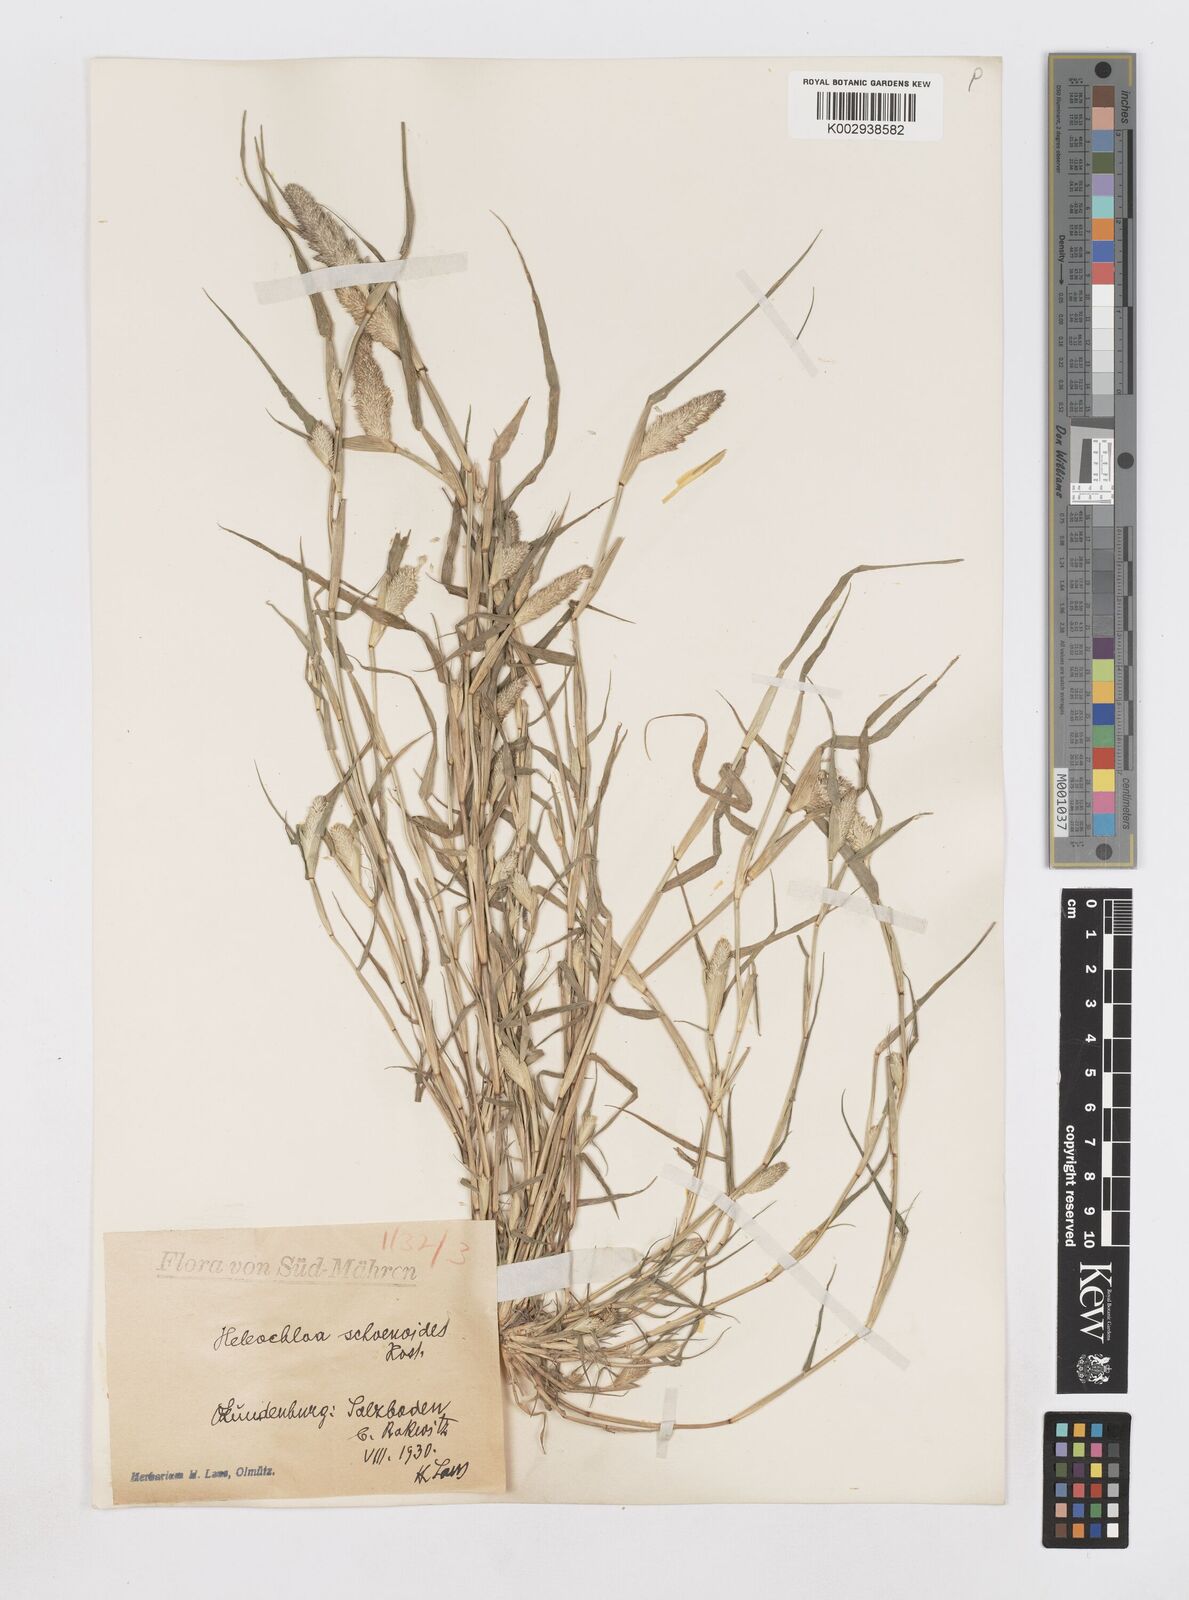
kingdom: Animalia
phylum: Arthropoda
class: Insecta
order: Coleoptera
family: Tenebrionidae
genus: Crypsis
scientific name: Crypsis
